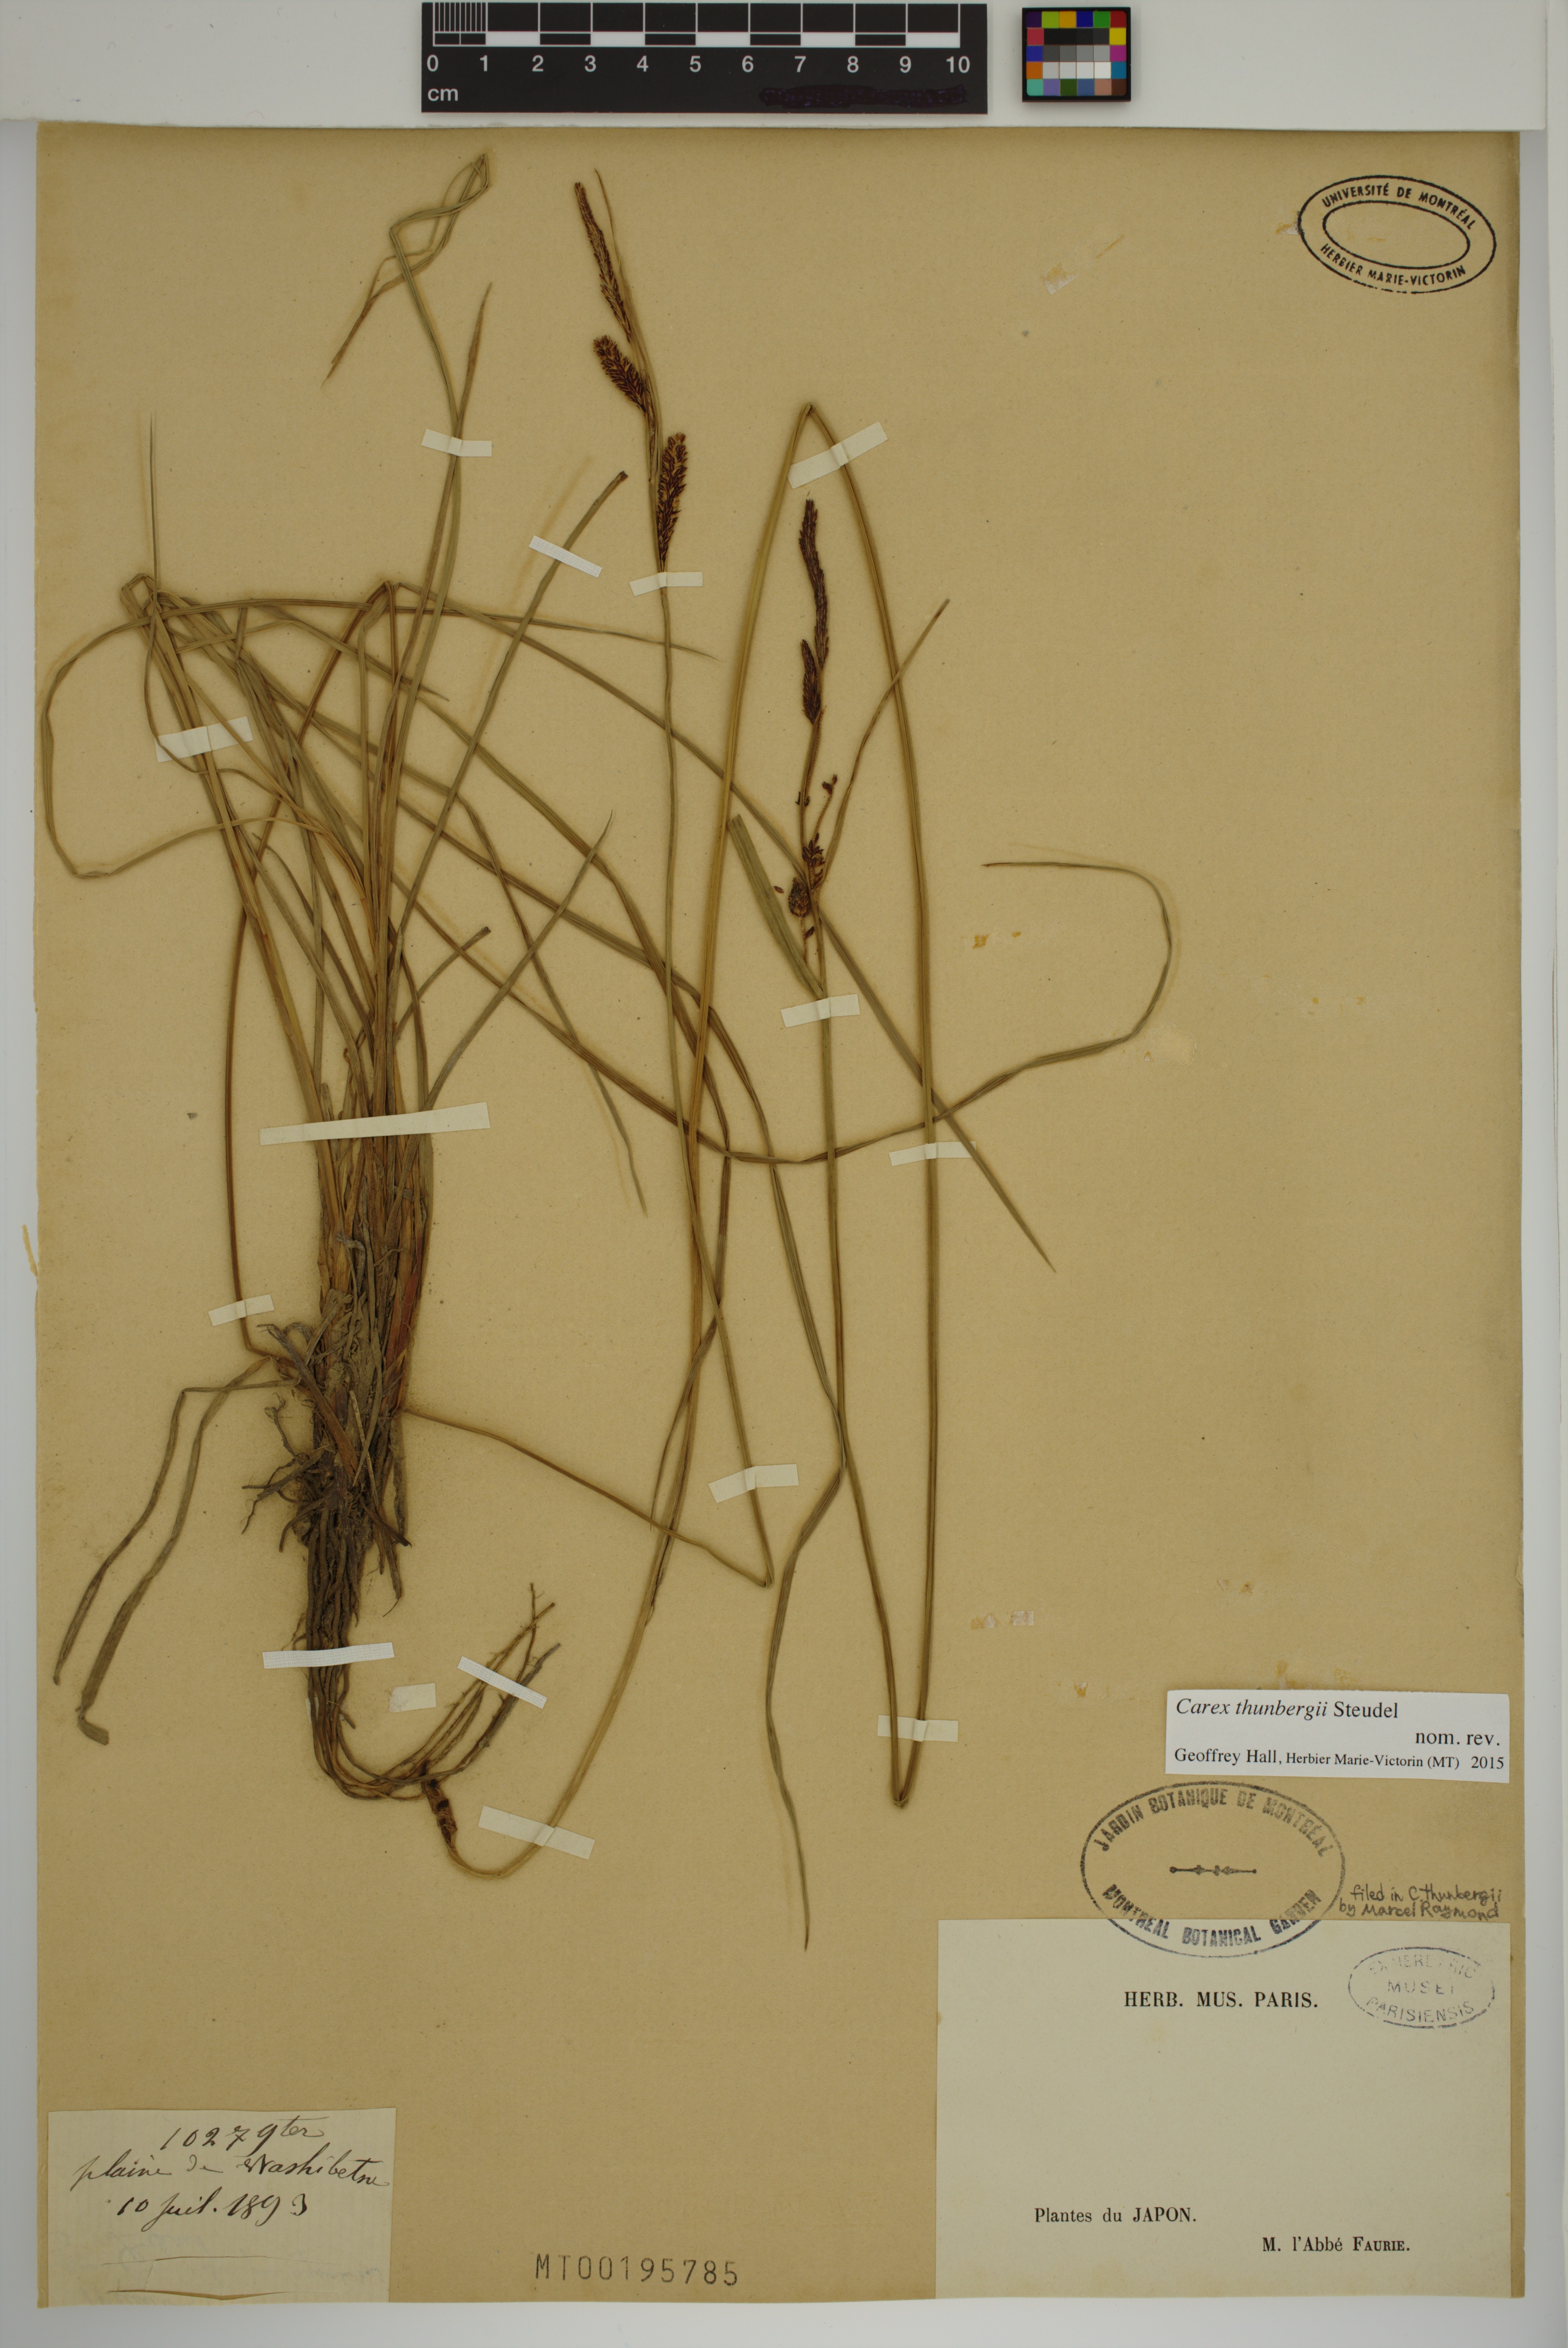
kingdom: Plantae
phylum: Tracheophyta
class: Liliopsida
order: Poales
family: Cyperaceae
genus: Carex
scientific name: Carex thunbergii
